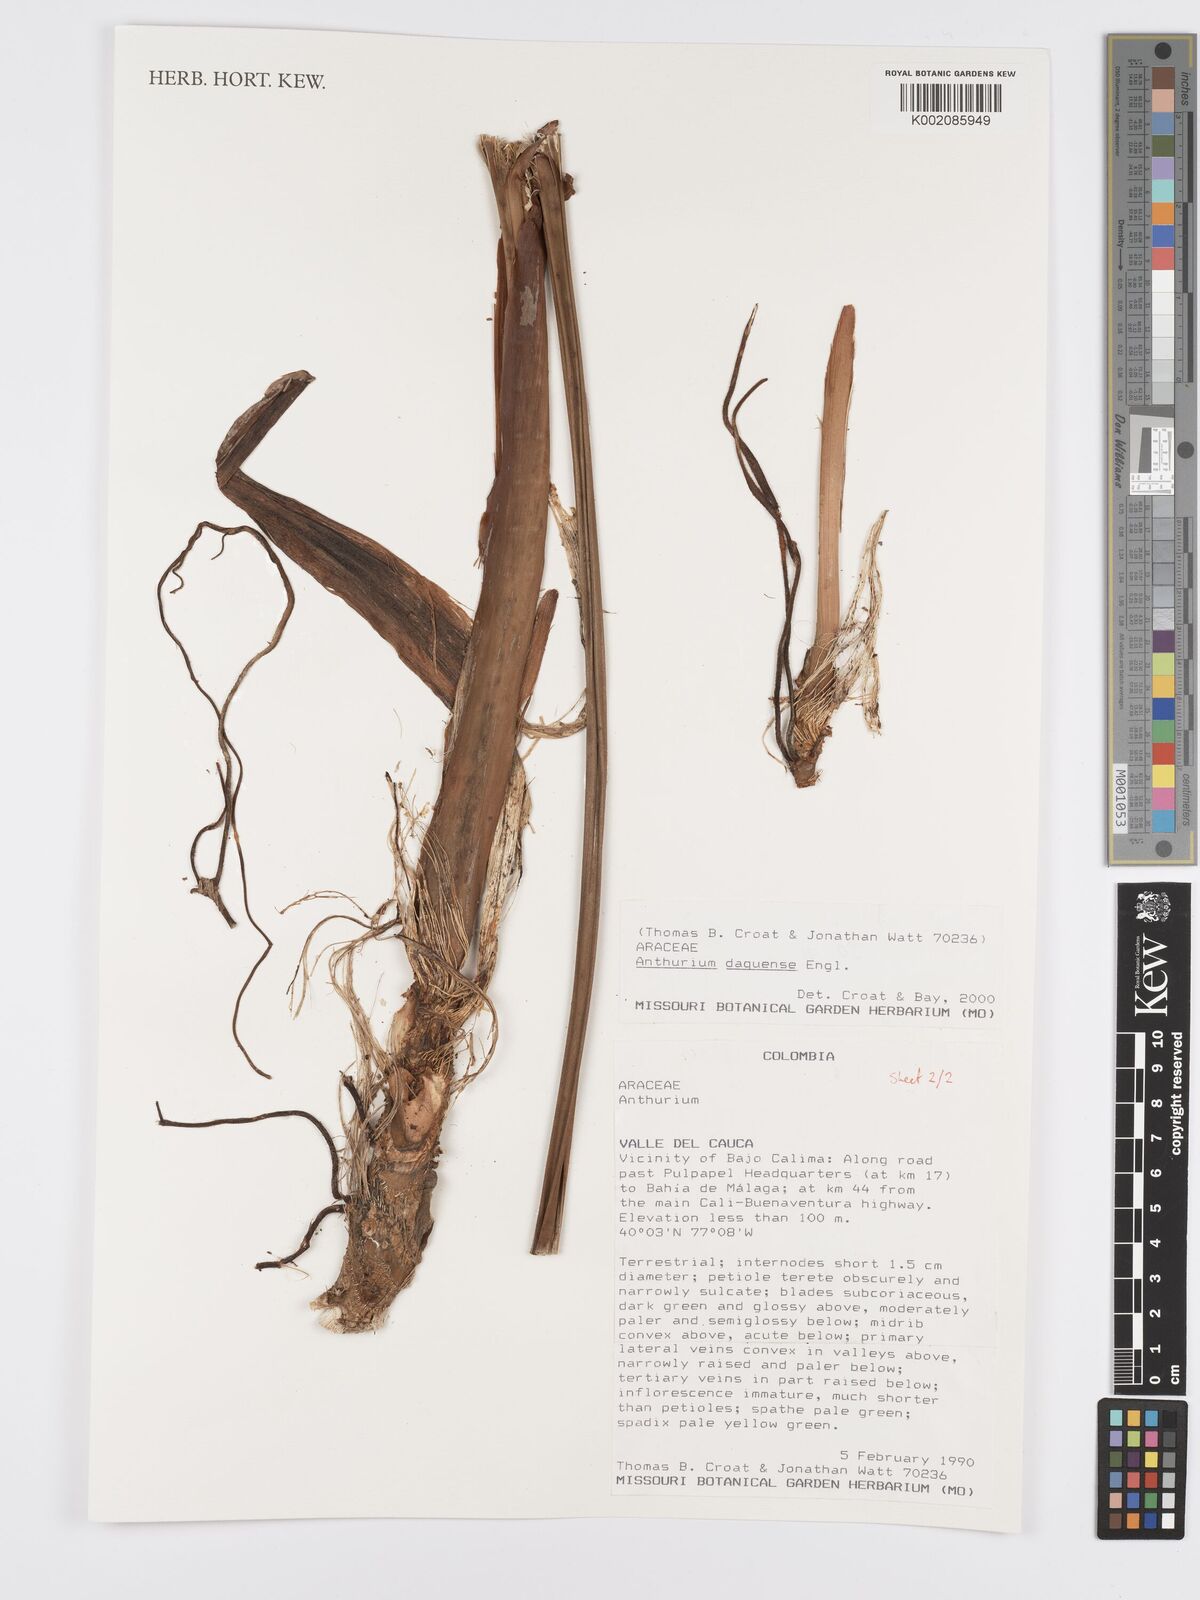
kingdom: Plantae
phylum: Tracheophyta
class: Liliopsida
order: Alismatales
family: Araceae
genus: Anthurium
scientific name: Anthurium daguense
